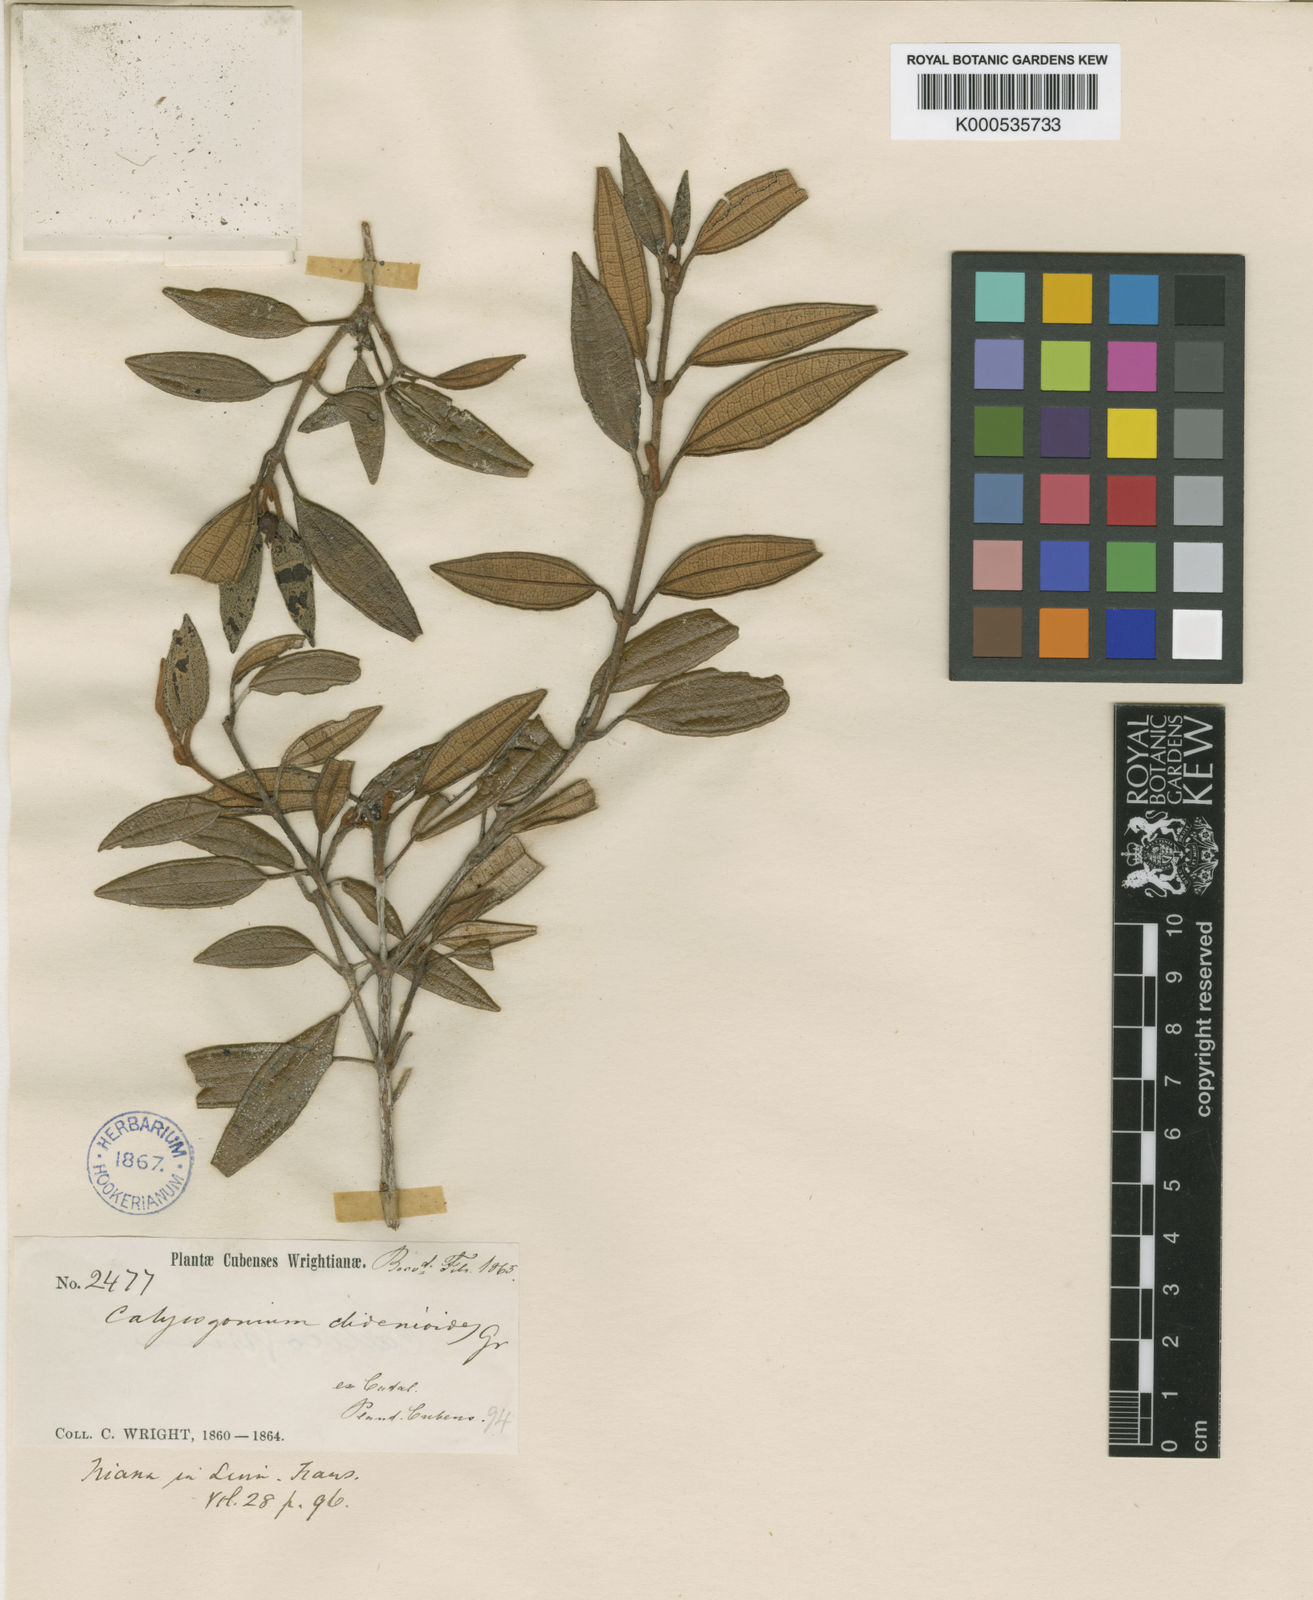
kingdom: Plantae
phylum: Tracheophyta
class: Magnoliopsida
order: Myrtales
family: Melastomataceae
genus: Miconia
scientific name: Miconia baracoana
